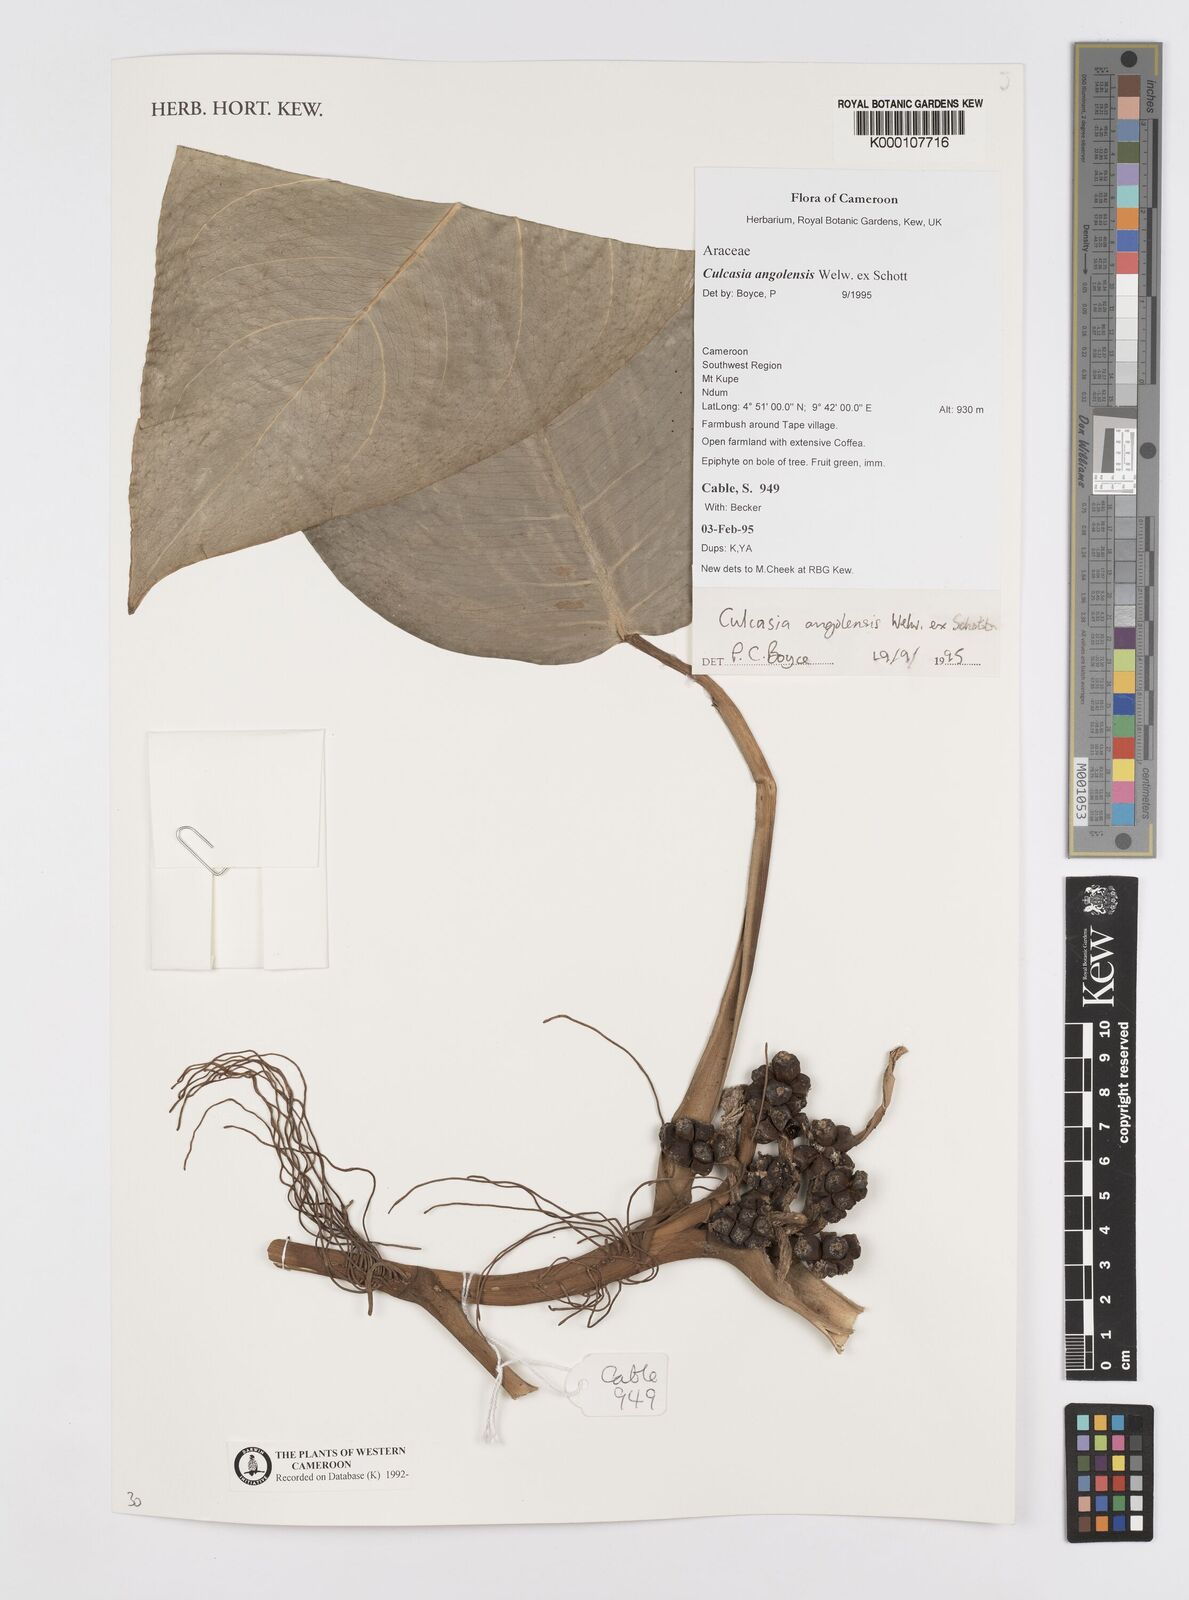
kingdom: Plantae
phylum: Tracheophyta
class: Liliopsida
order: Alismatales
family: Araceae
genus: Culcasia
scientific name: Culcasia angolensis
